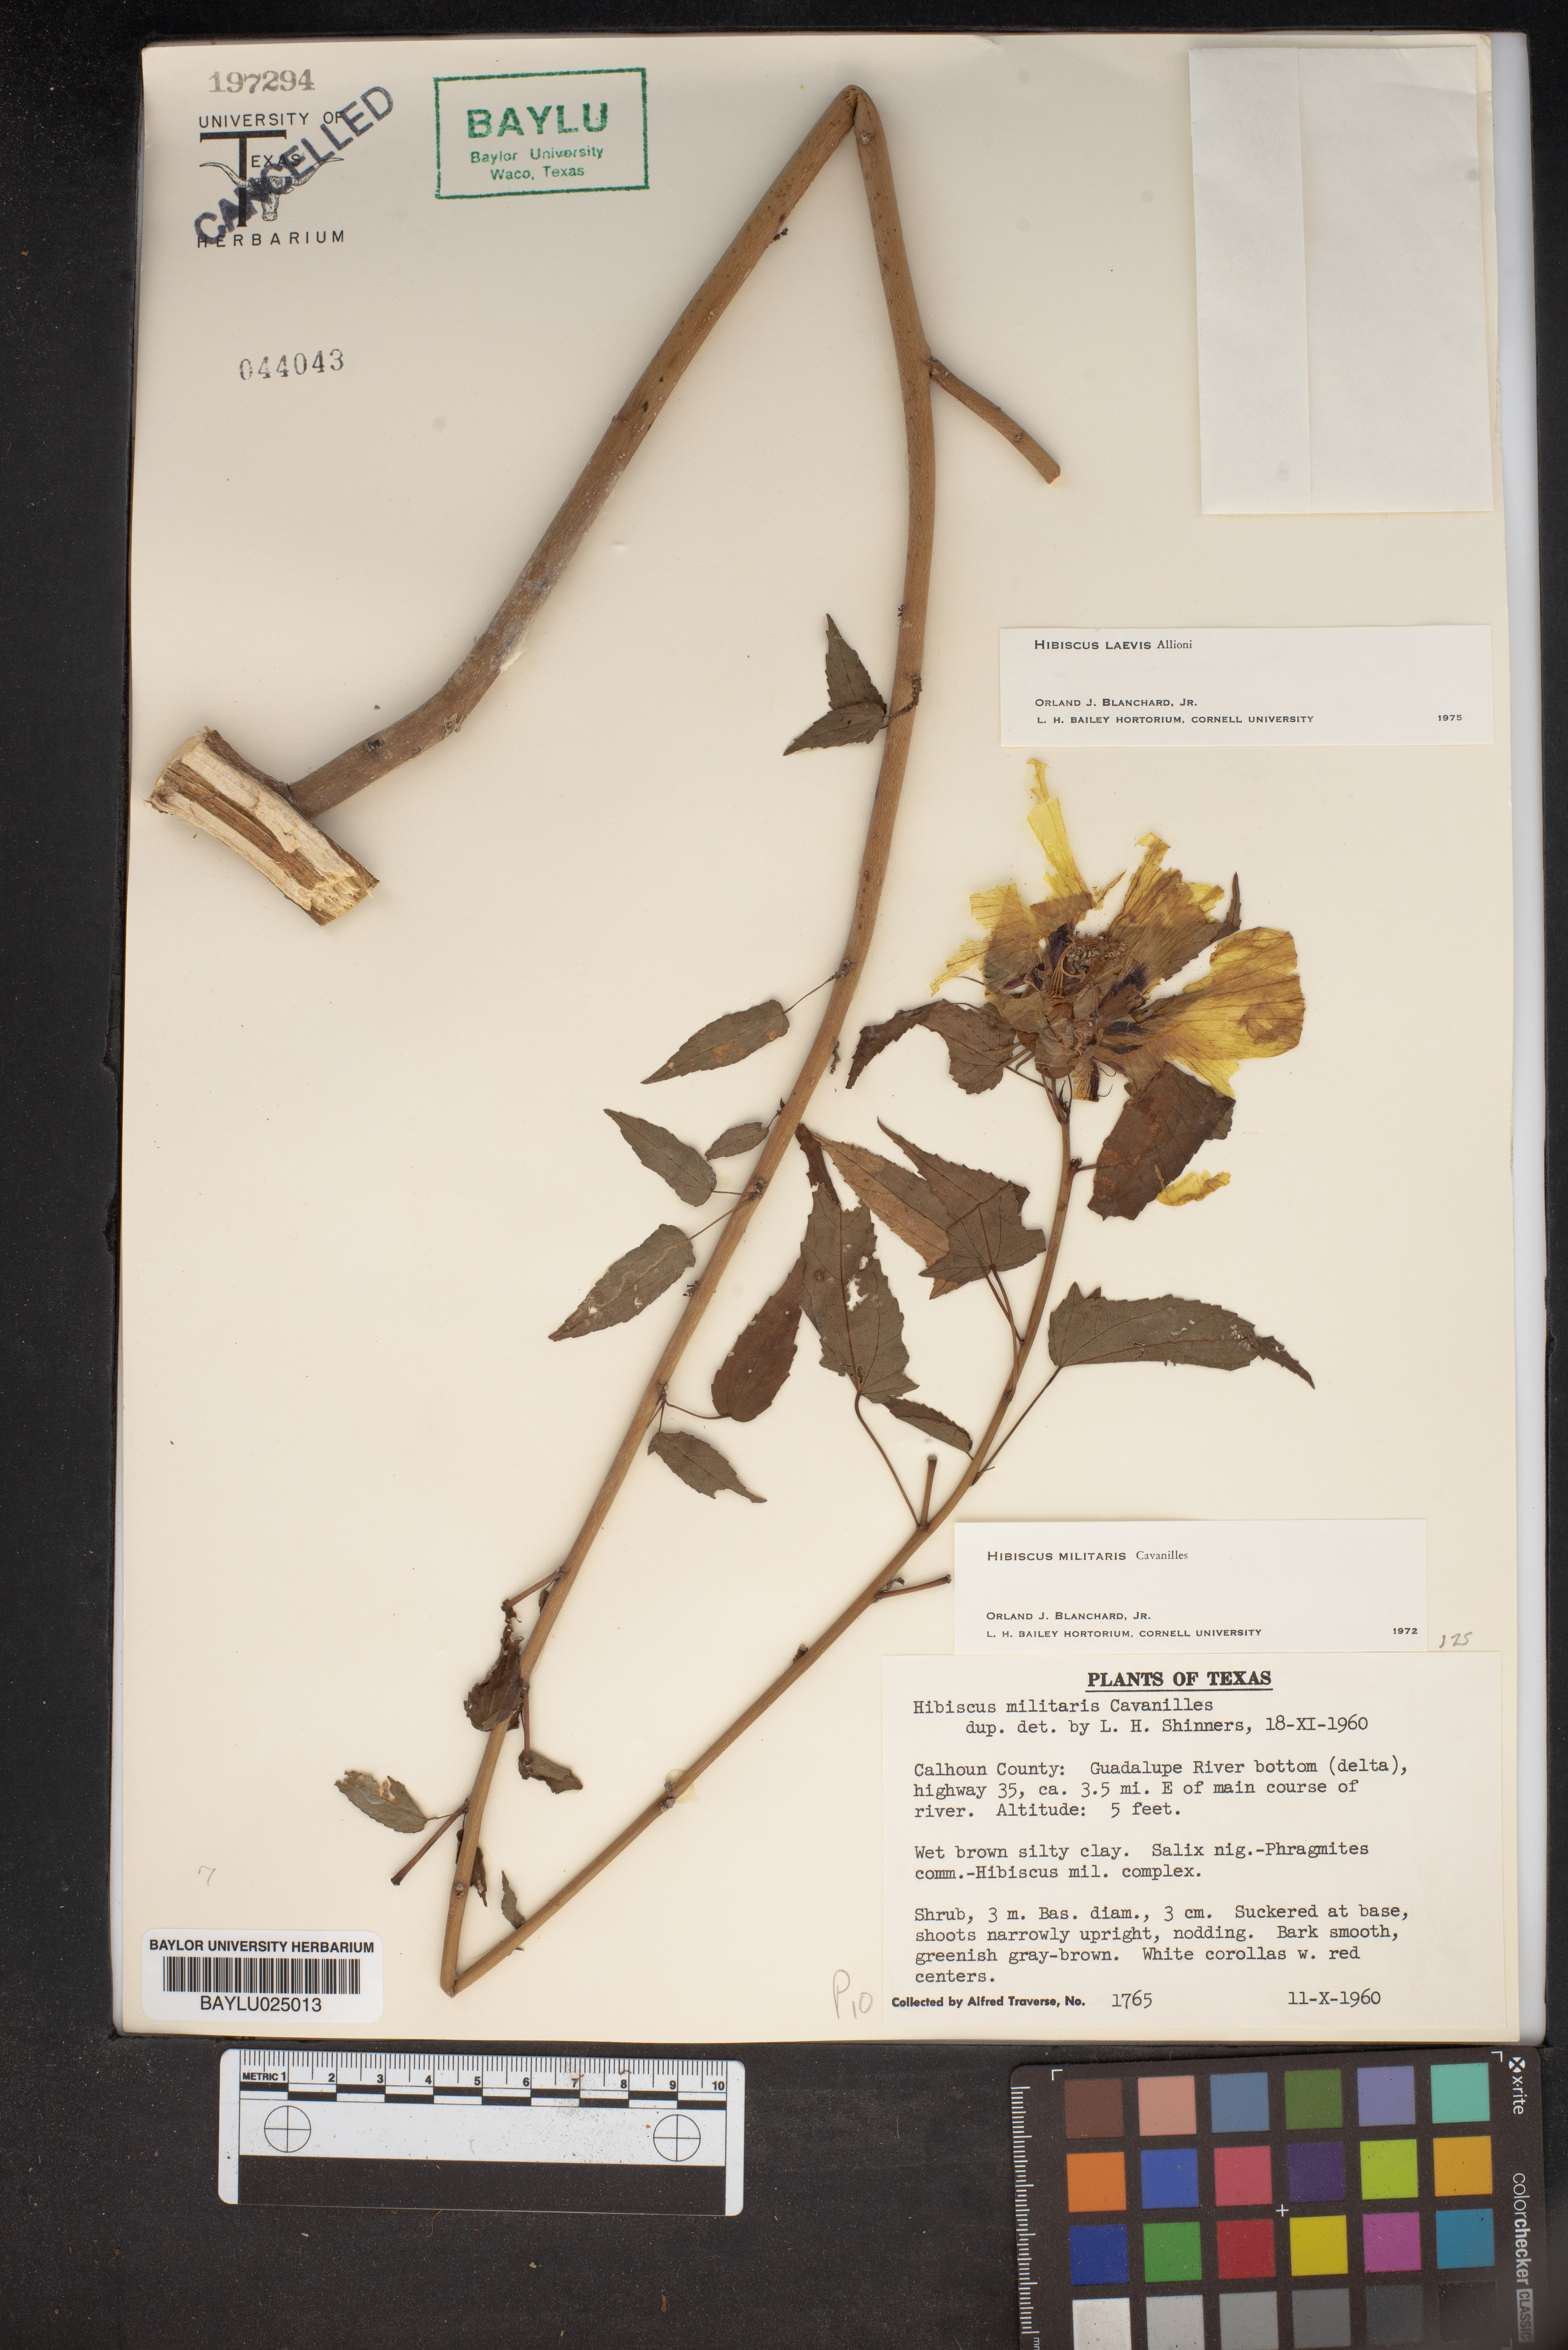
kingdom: Plantae
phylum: Tracheophyta
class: Magnoliopsida
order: Malvales
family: Malvaceae
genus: Hibiscus
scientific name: Hibiscus laevis
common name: Scarlet rose-mallow
